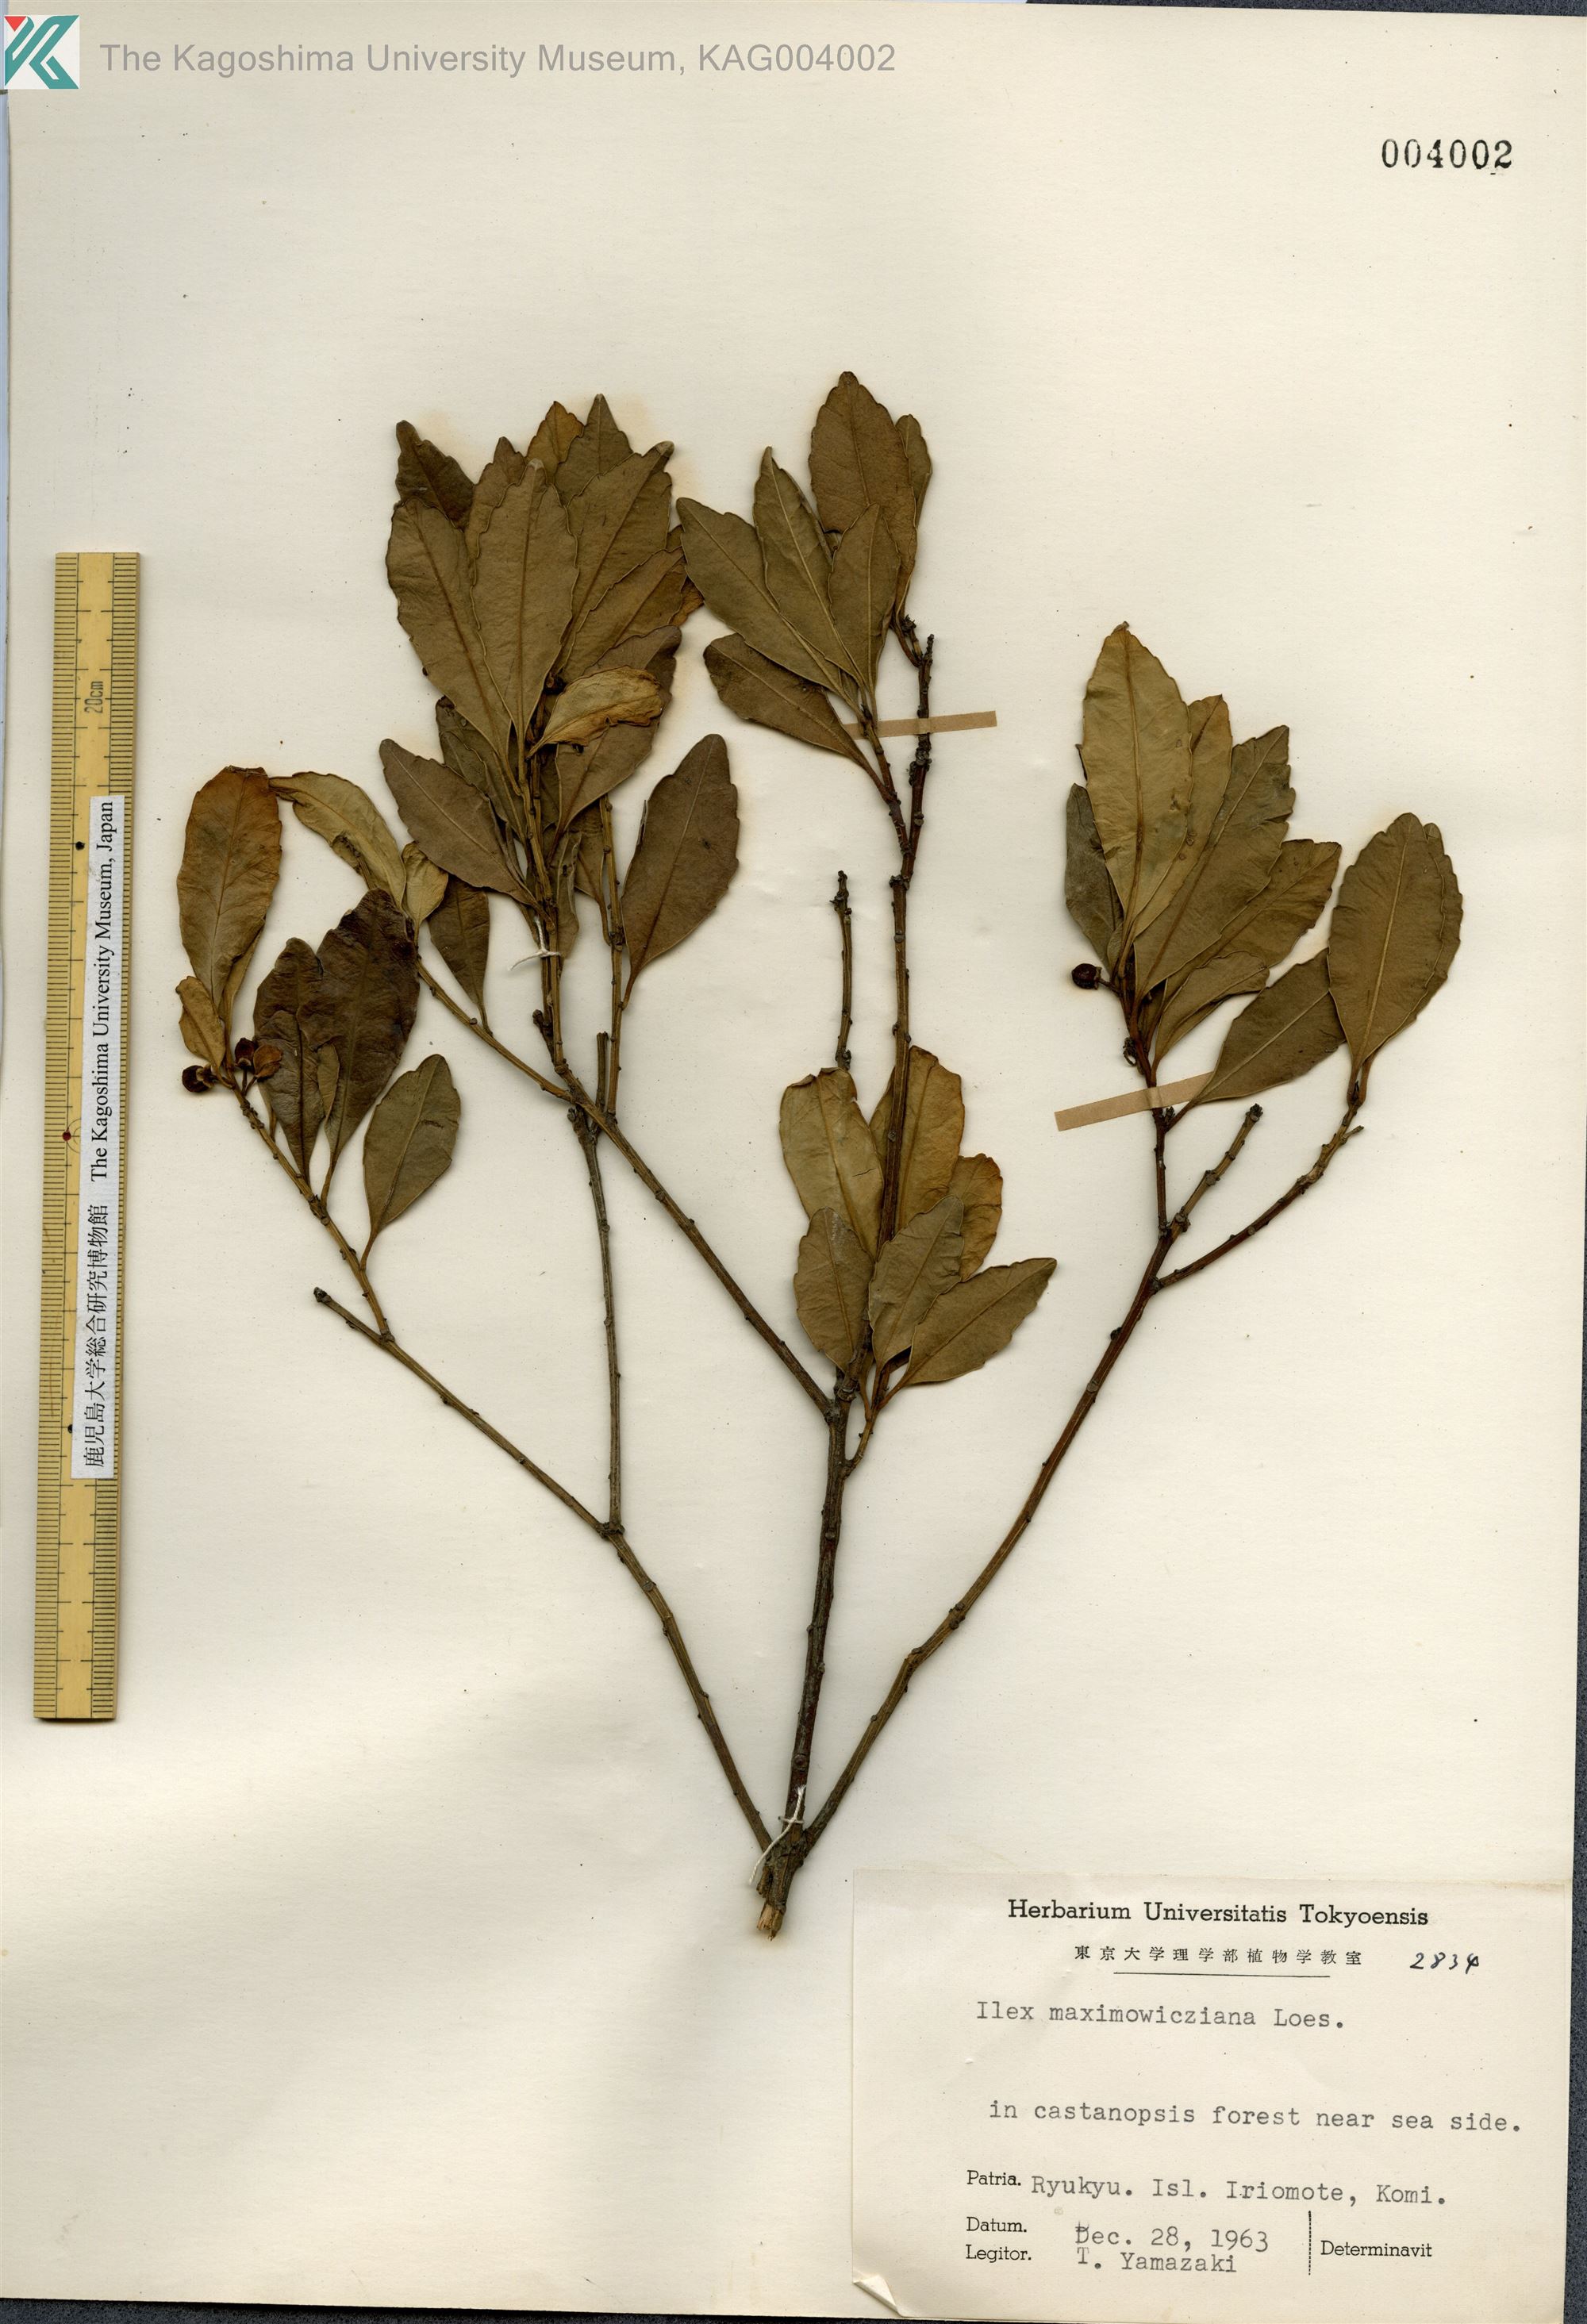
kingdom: Plantae
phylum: Tracheophyta
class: Magnoliopsida
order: Aquifoliales
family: Aquifoliaceae
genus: Ilex
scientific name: Ilex maximowicziana
